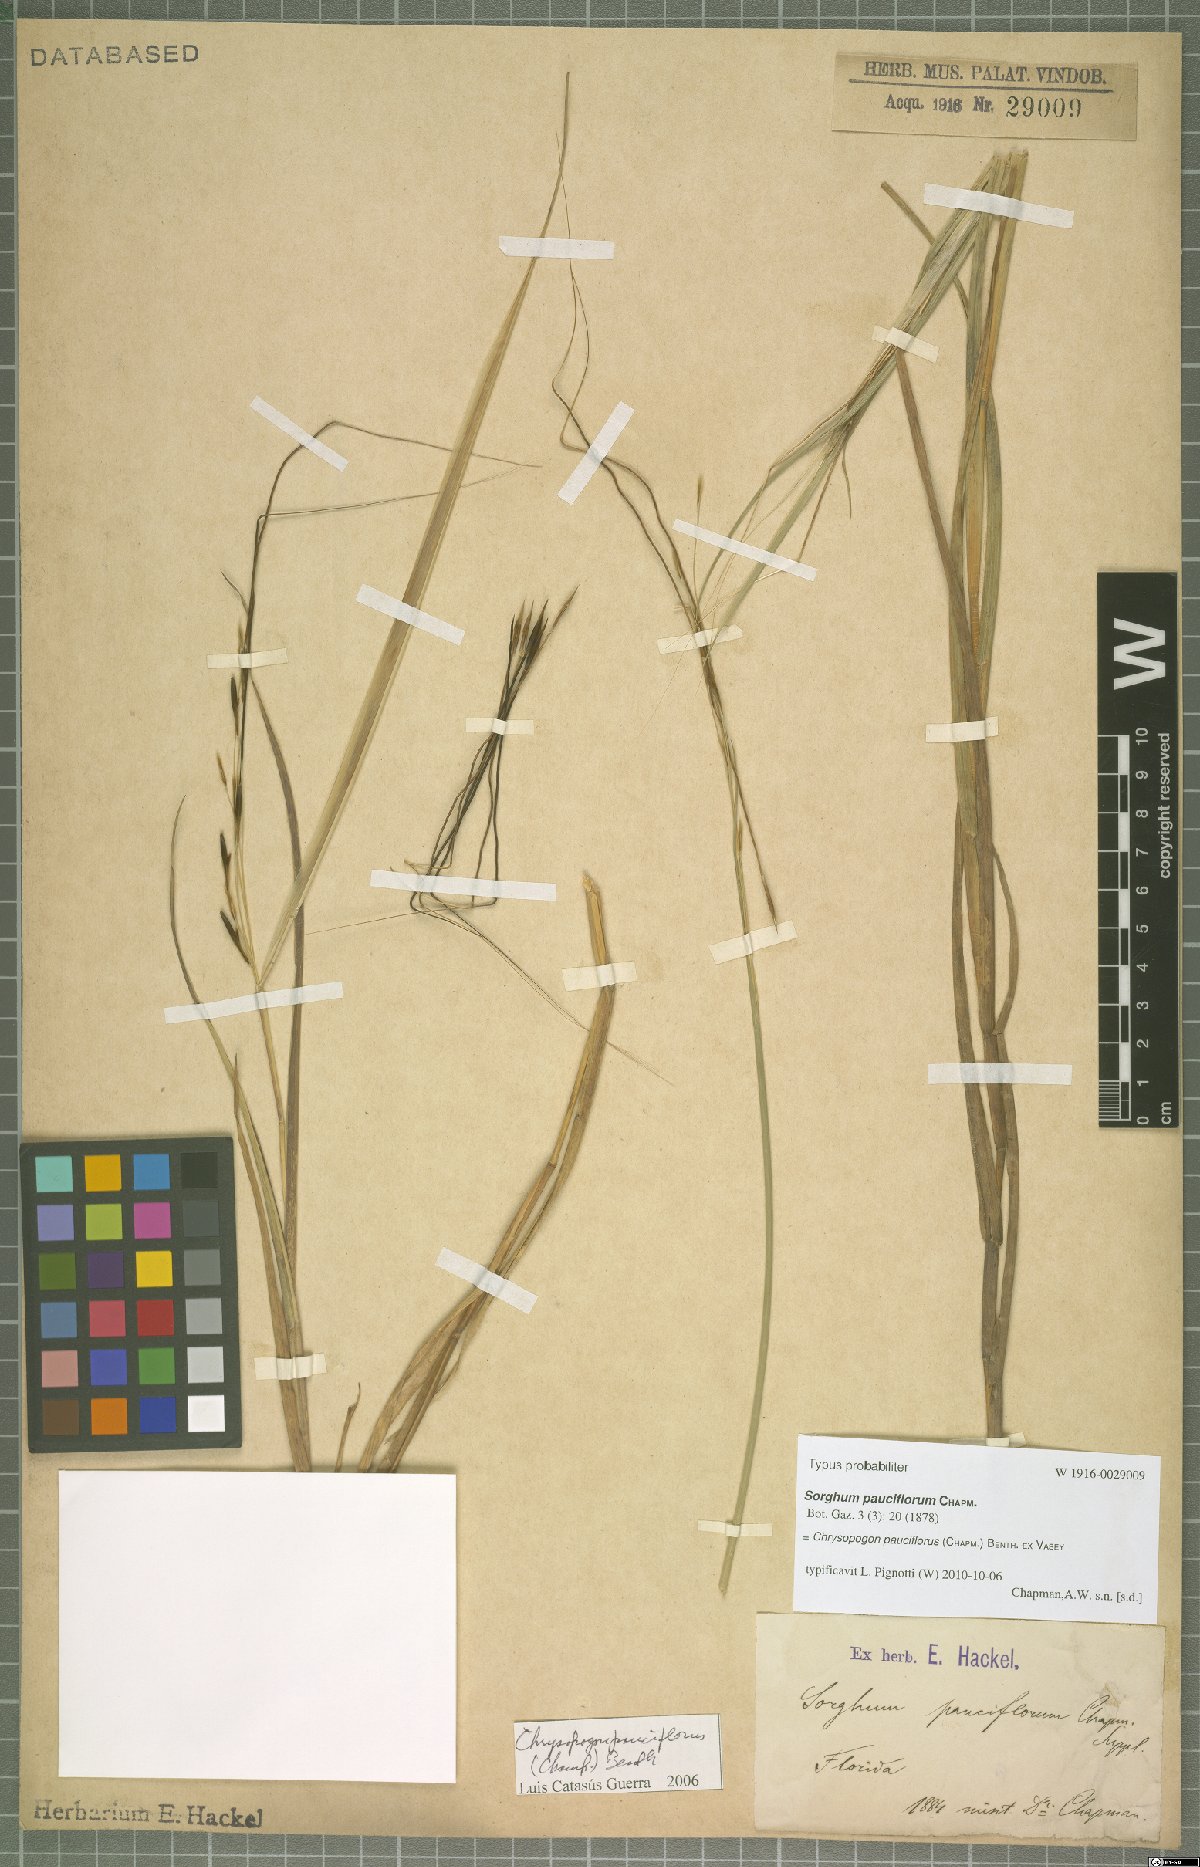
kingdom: Plantae
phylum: Tracheophyta
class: Liliopsida
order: Poales
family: Poaceae
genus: Chrysopogon
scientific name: Chrysopogon pauciflorus
